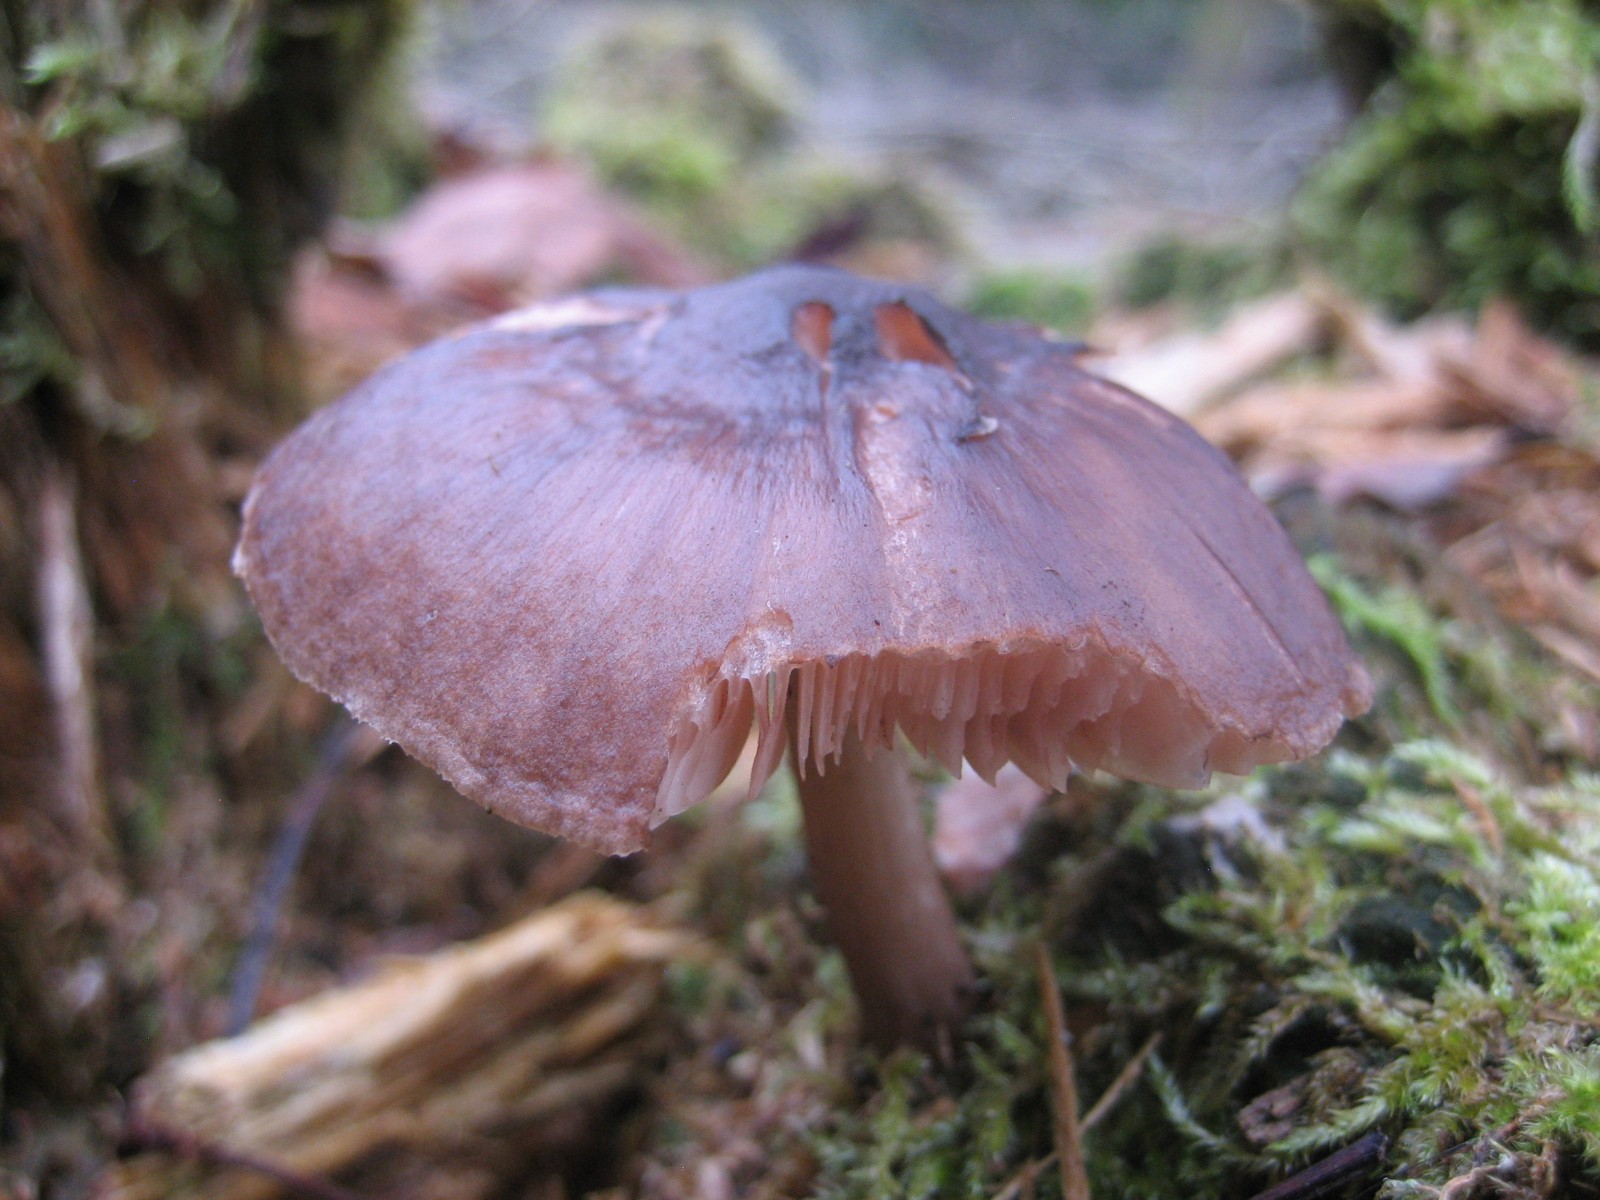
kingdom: Fungi
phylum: Basidiomycota
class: Agaricomycetes
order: Agaricales
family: Pluteaceae
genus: Pluteus
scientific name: Pluteus cervinus
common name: sodfarvet skærmhat
